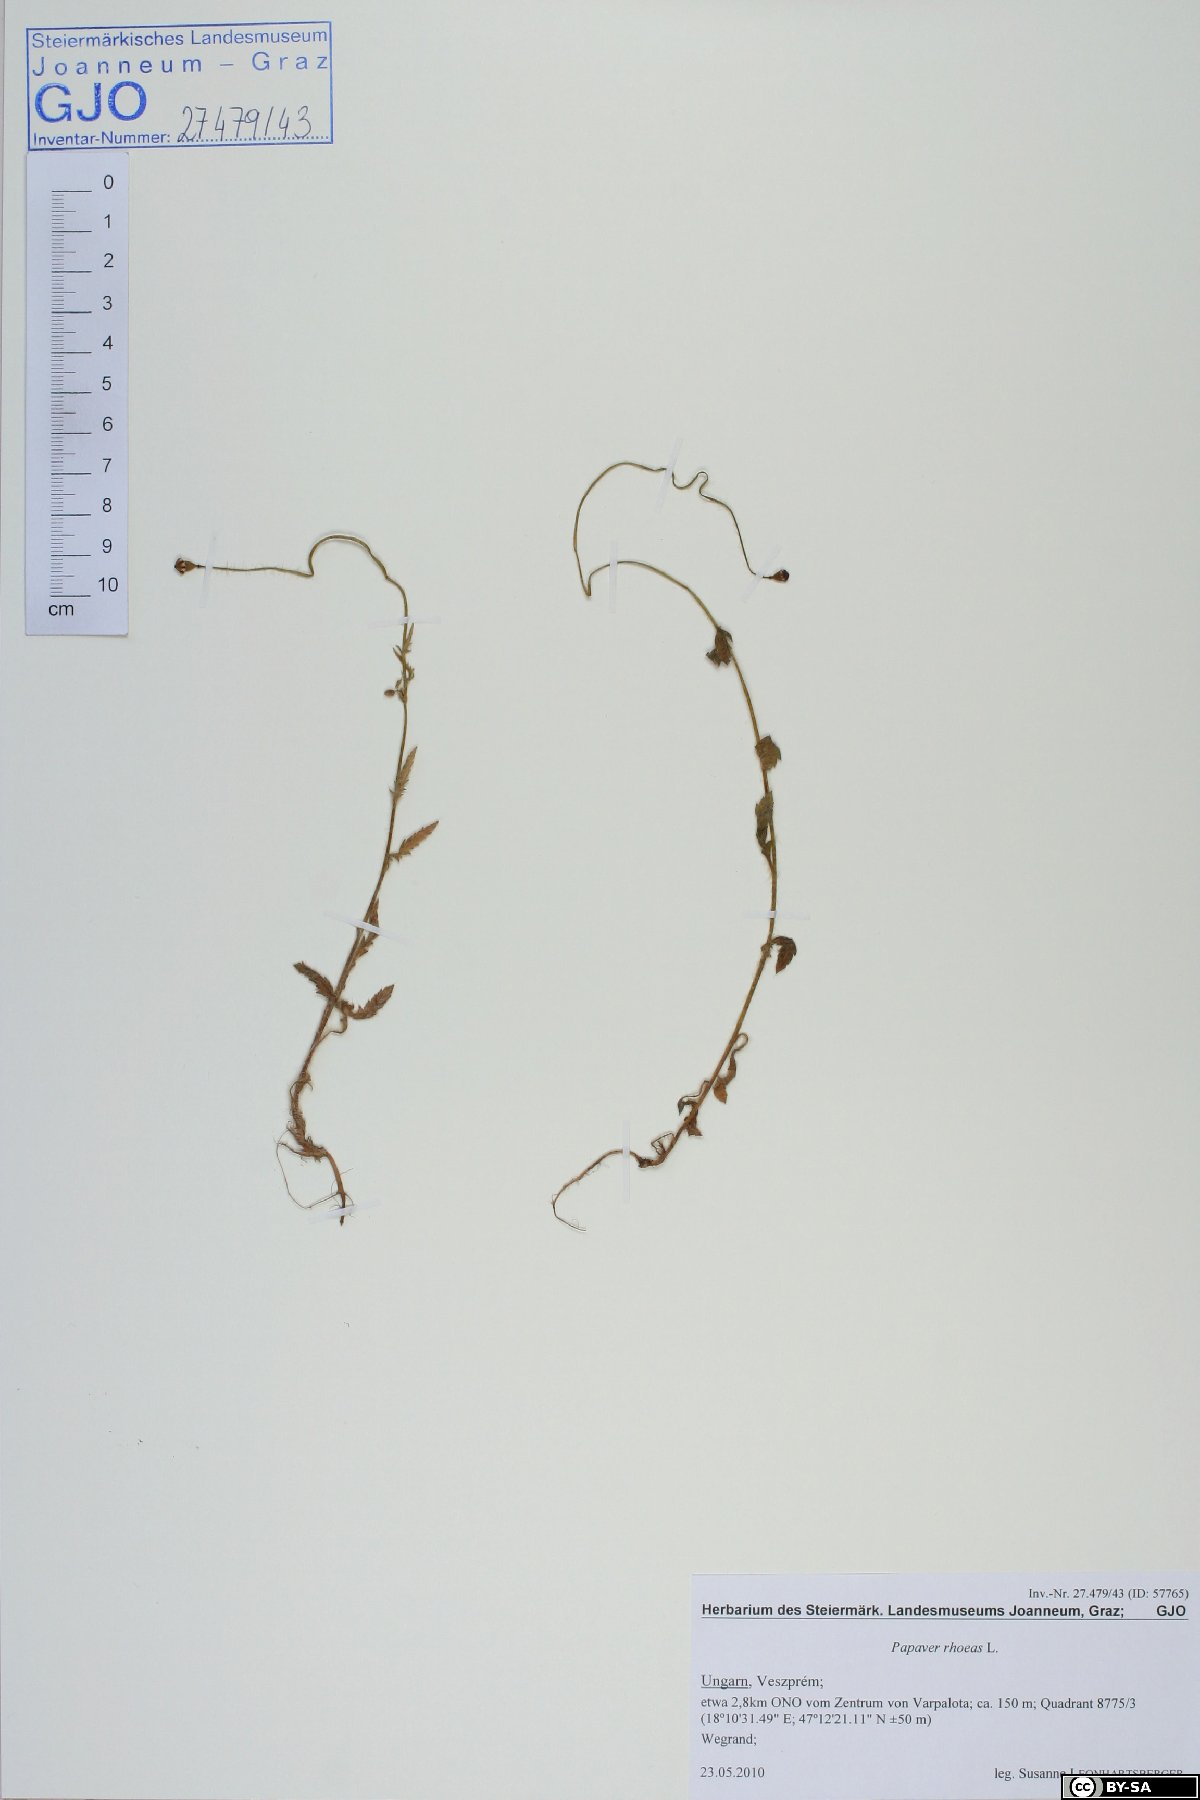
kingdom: Plantae
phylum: Tracheophyta
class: Magnoliopsida
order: Ranunculales
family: Papaveraceae
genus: Papaver
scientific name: Papaver rhoeas
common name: Corn poppy
